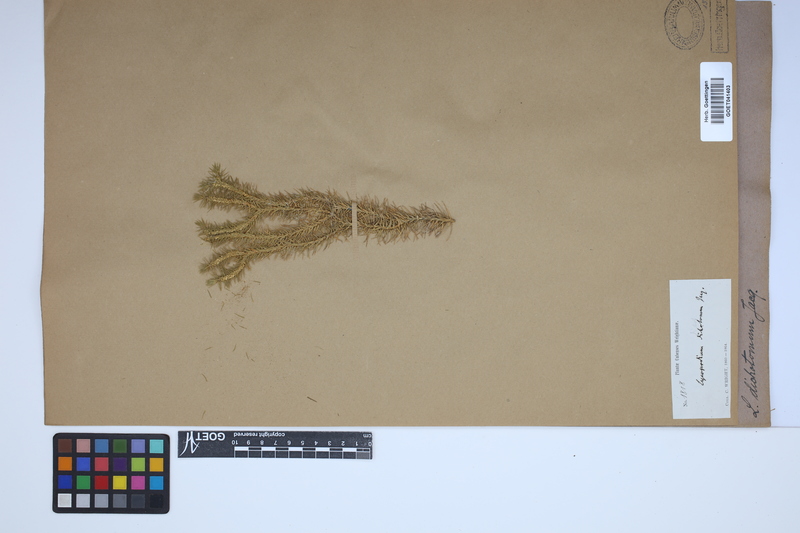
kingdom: Plantae
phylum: Tracheophyta
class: Lycopodiopsida
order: Lycopodiales
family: Lycopodiaceae
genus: Phlegmariurus
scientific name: Phlegmariurus dichotomus
